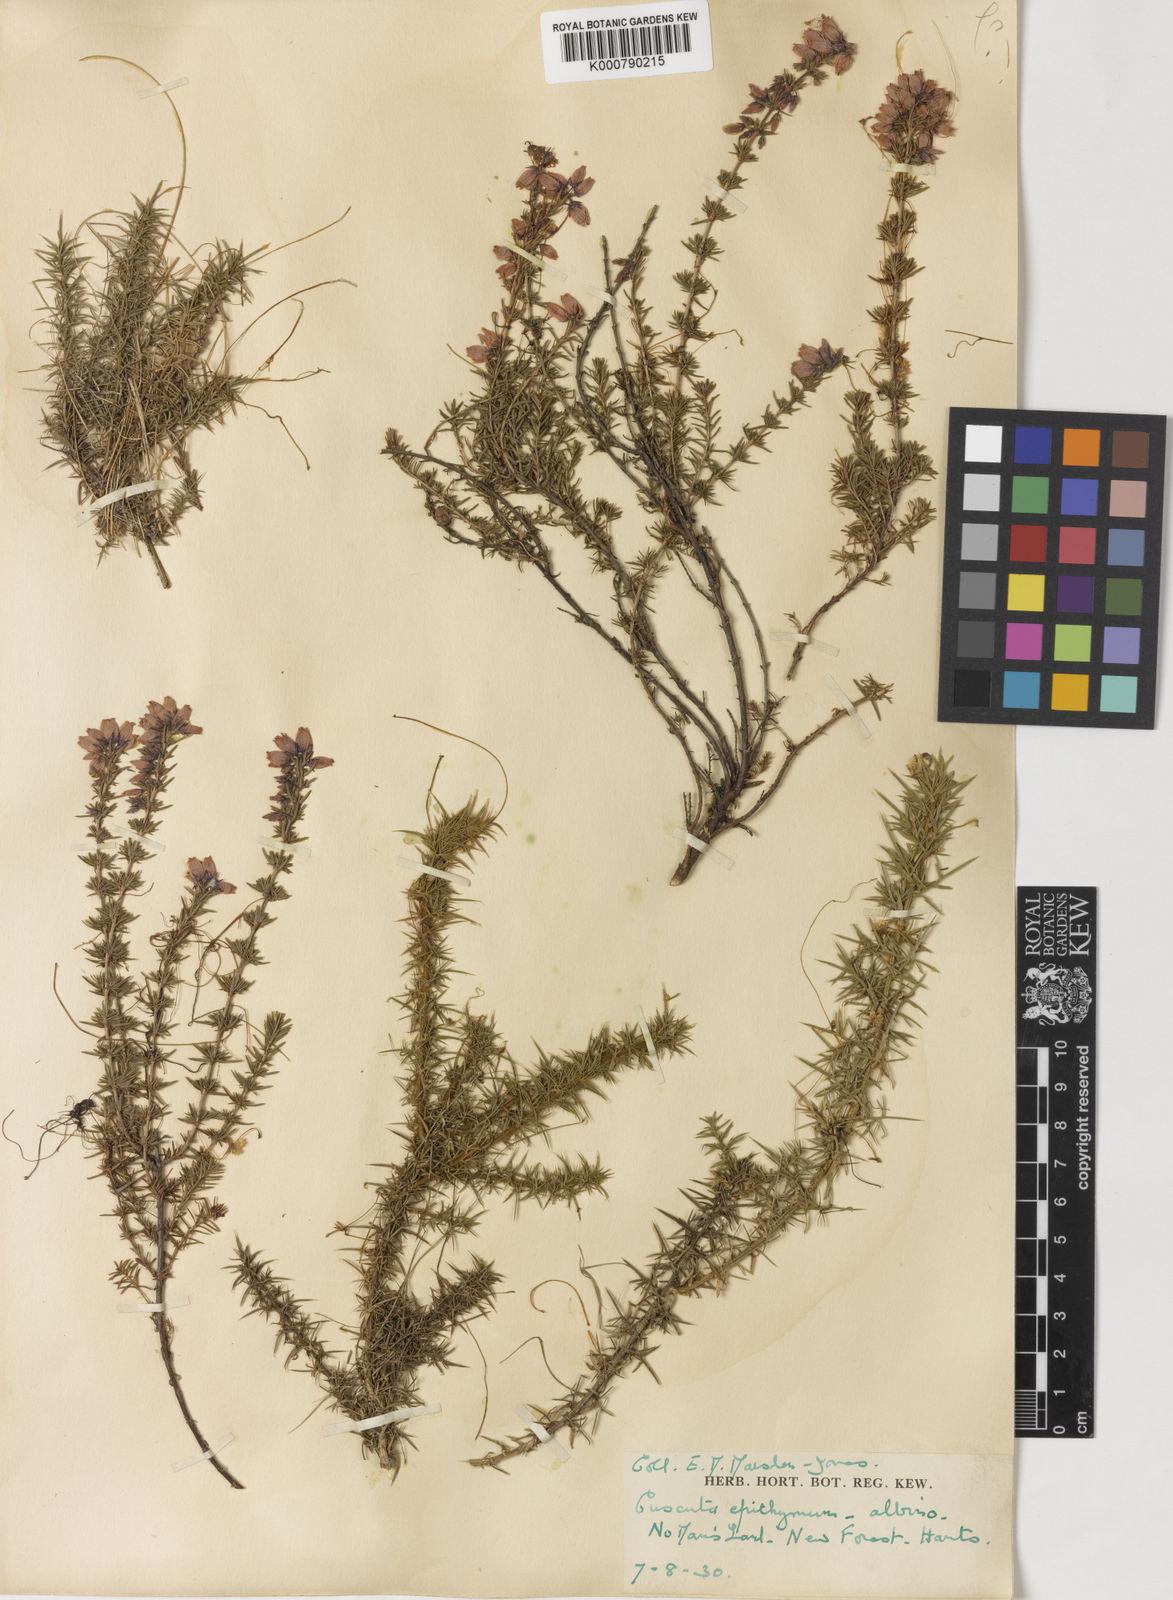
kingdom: Plantae
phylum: Tracheophyta
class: Magnoliopsida
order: Solanales
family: Convolvulaceae
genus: Cuscuta
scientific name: Cuscuta epithymum
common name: Clover dodder
